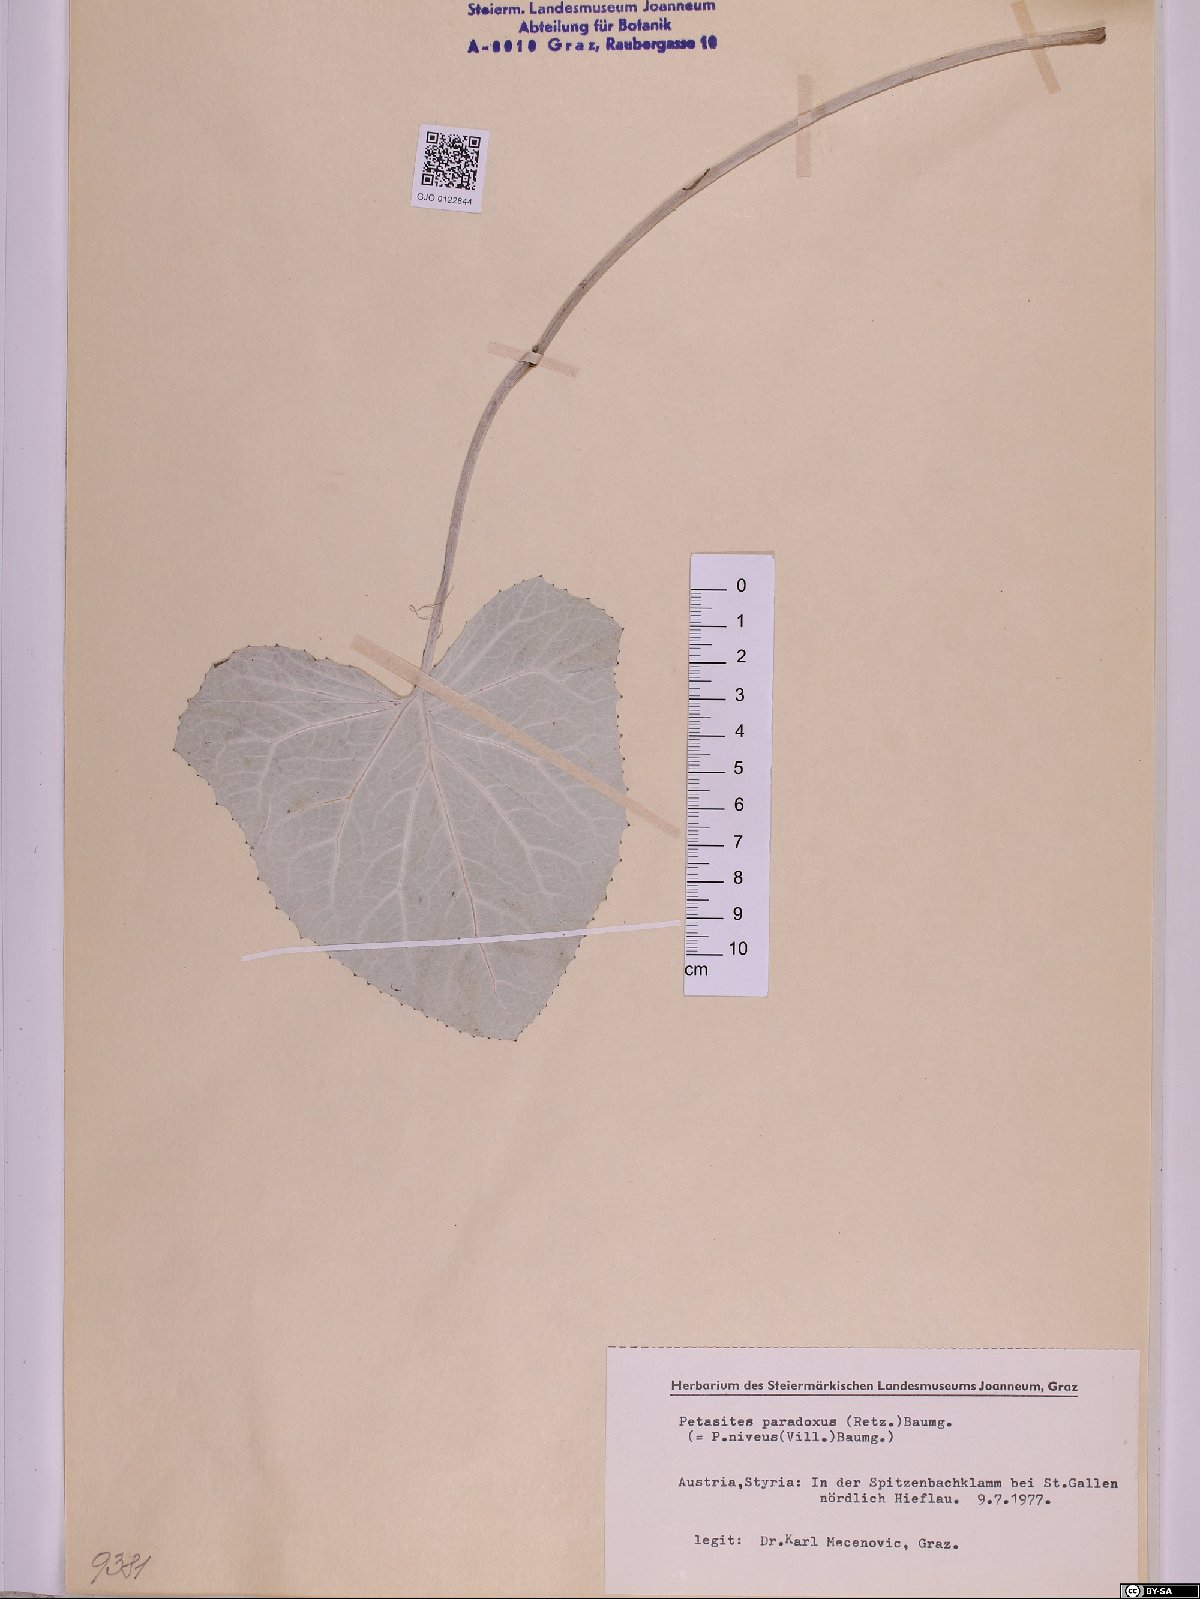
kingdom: Plantae
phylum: Tracheophyta
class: Magnoliopsida
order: Asterales
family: Asteraceae
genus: Petasites
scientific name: Petasites paradoxus
